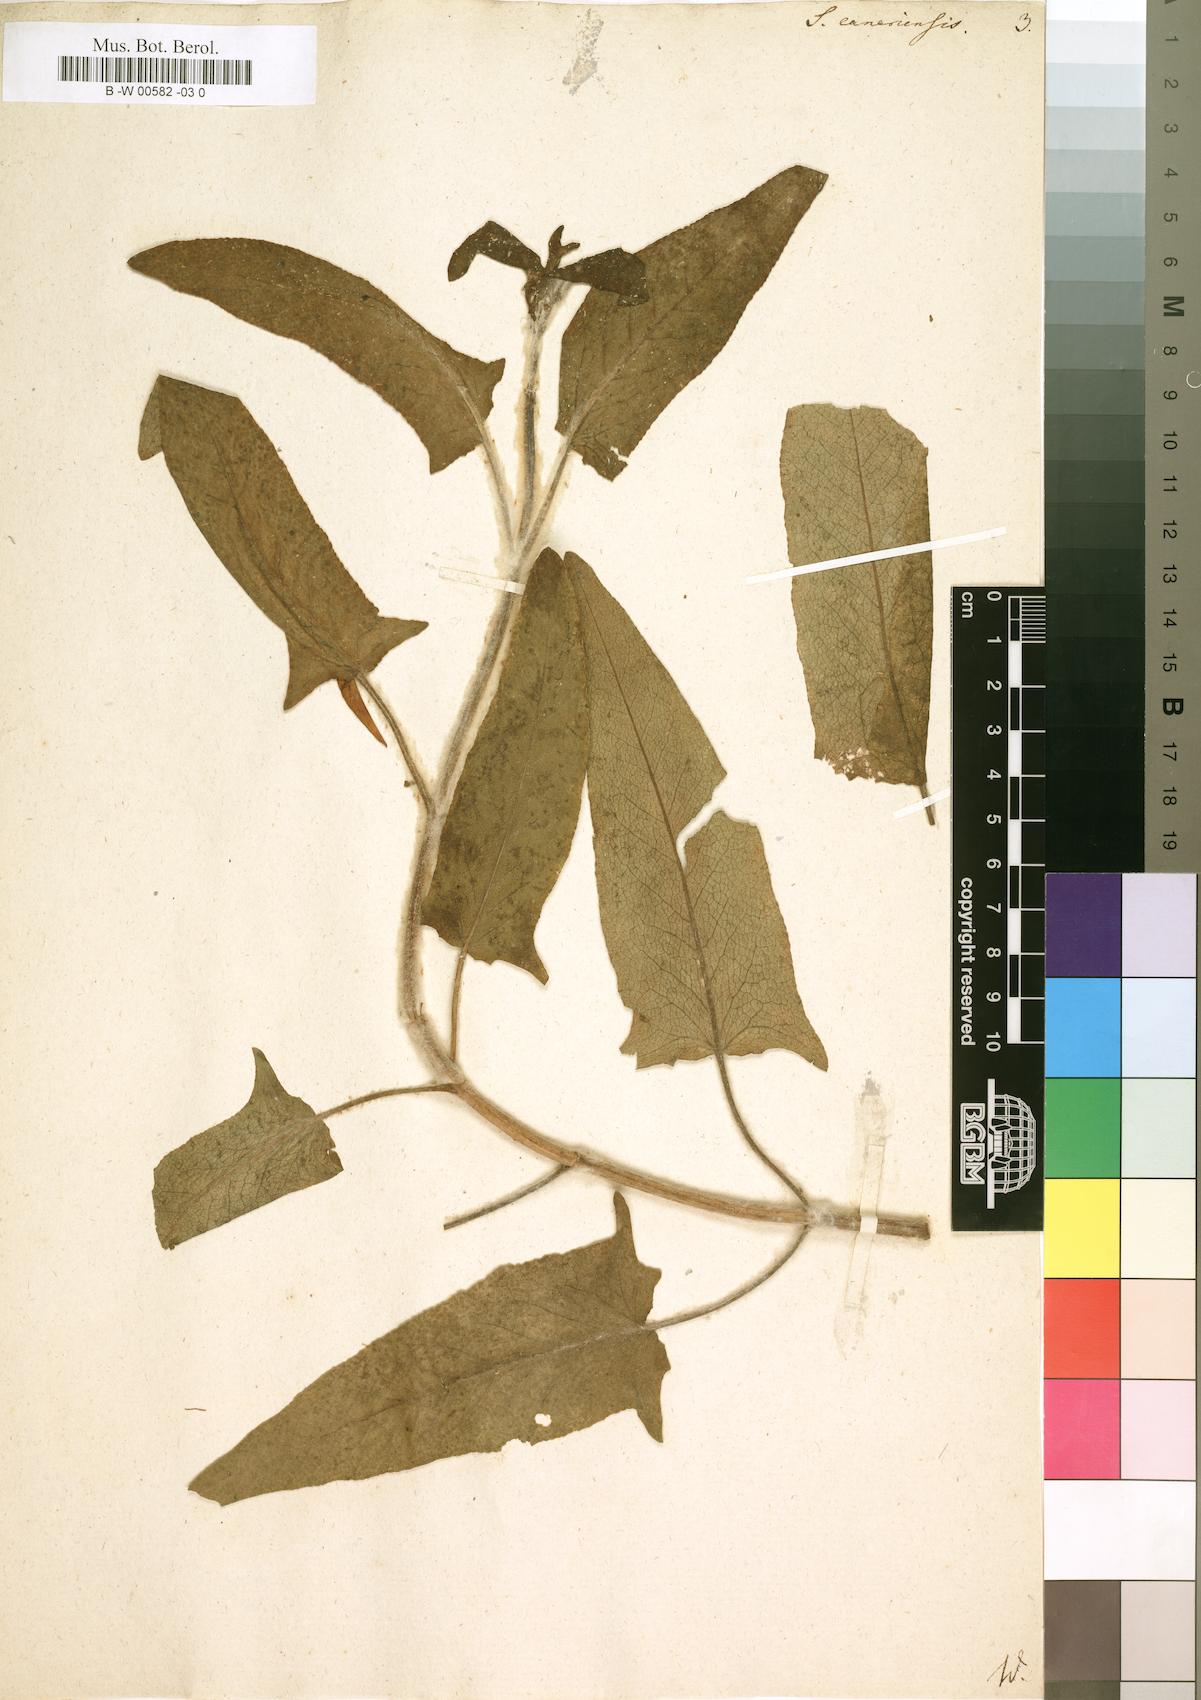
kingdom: Plantae
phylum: Tracheophyta
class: Magnoliopsida
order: Lamiales
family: Lamiaceae
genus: Salvia
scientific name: Salvia canariensis
